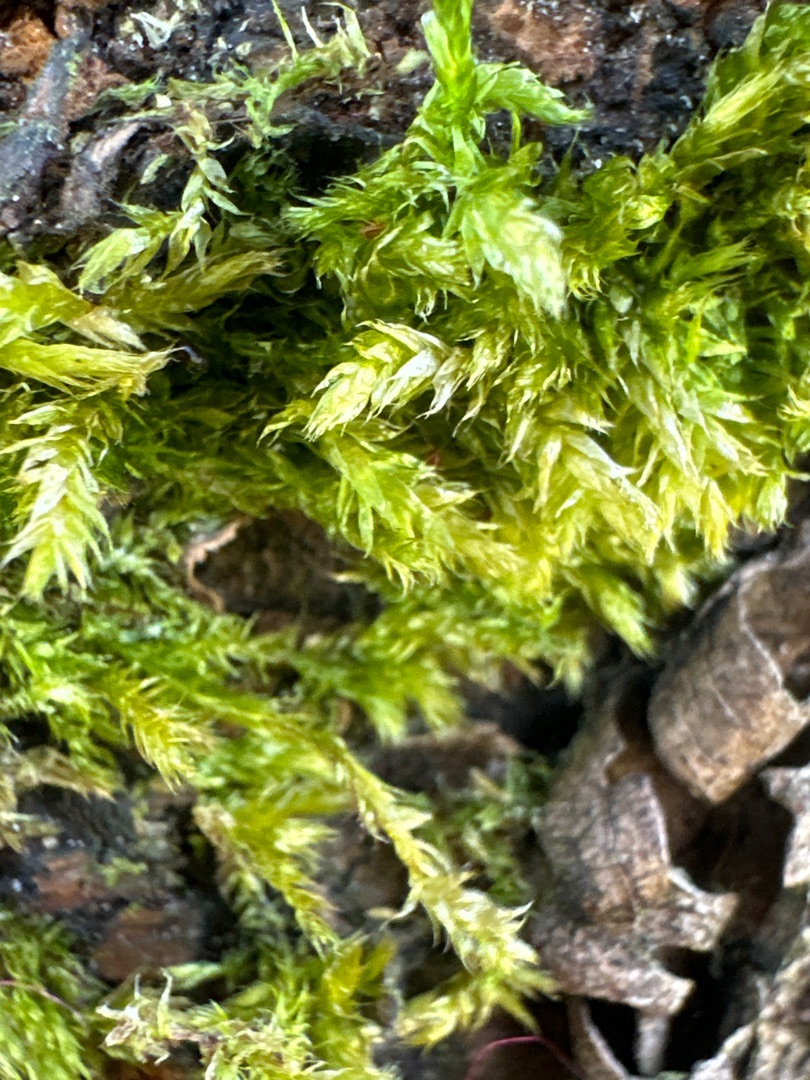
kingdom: Plantae
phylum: Bryophyta
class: Bryopsida
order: Hypnales
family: Brachytheciaceae
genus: Brachythecium
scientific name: Brachythecium rutabulum
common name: Almindelig kortkapsel
